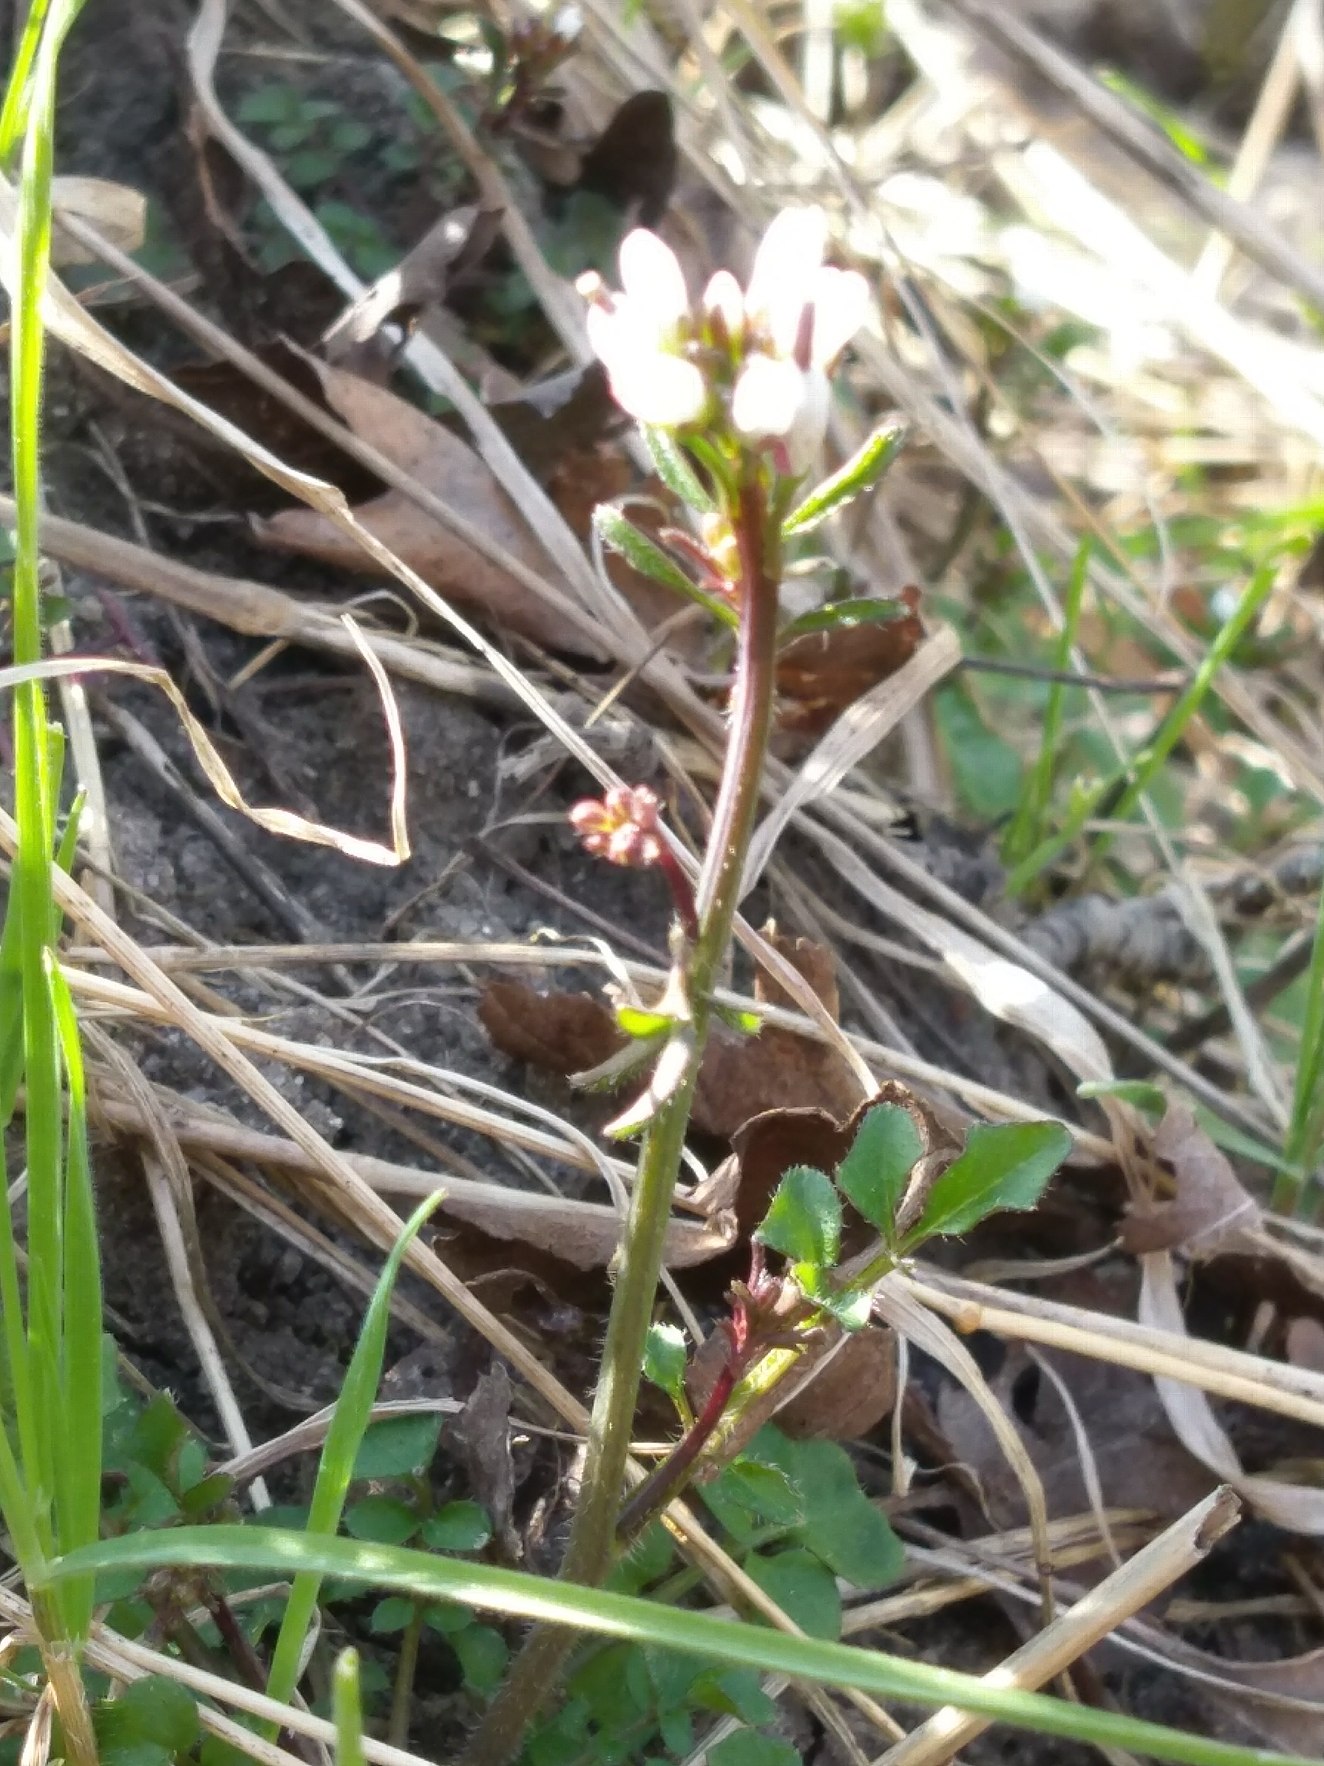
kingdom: Plantae
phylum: Tracheophyta
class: Magnoliopsida
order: Brassicales
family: Brassicaceae
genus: Cardamine
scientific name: Cardamine hirsuta
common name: Roset-springklap
